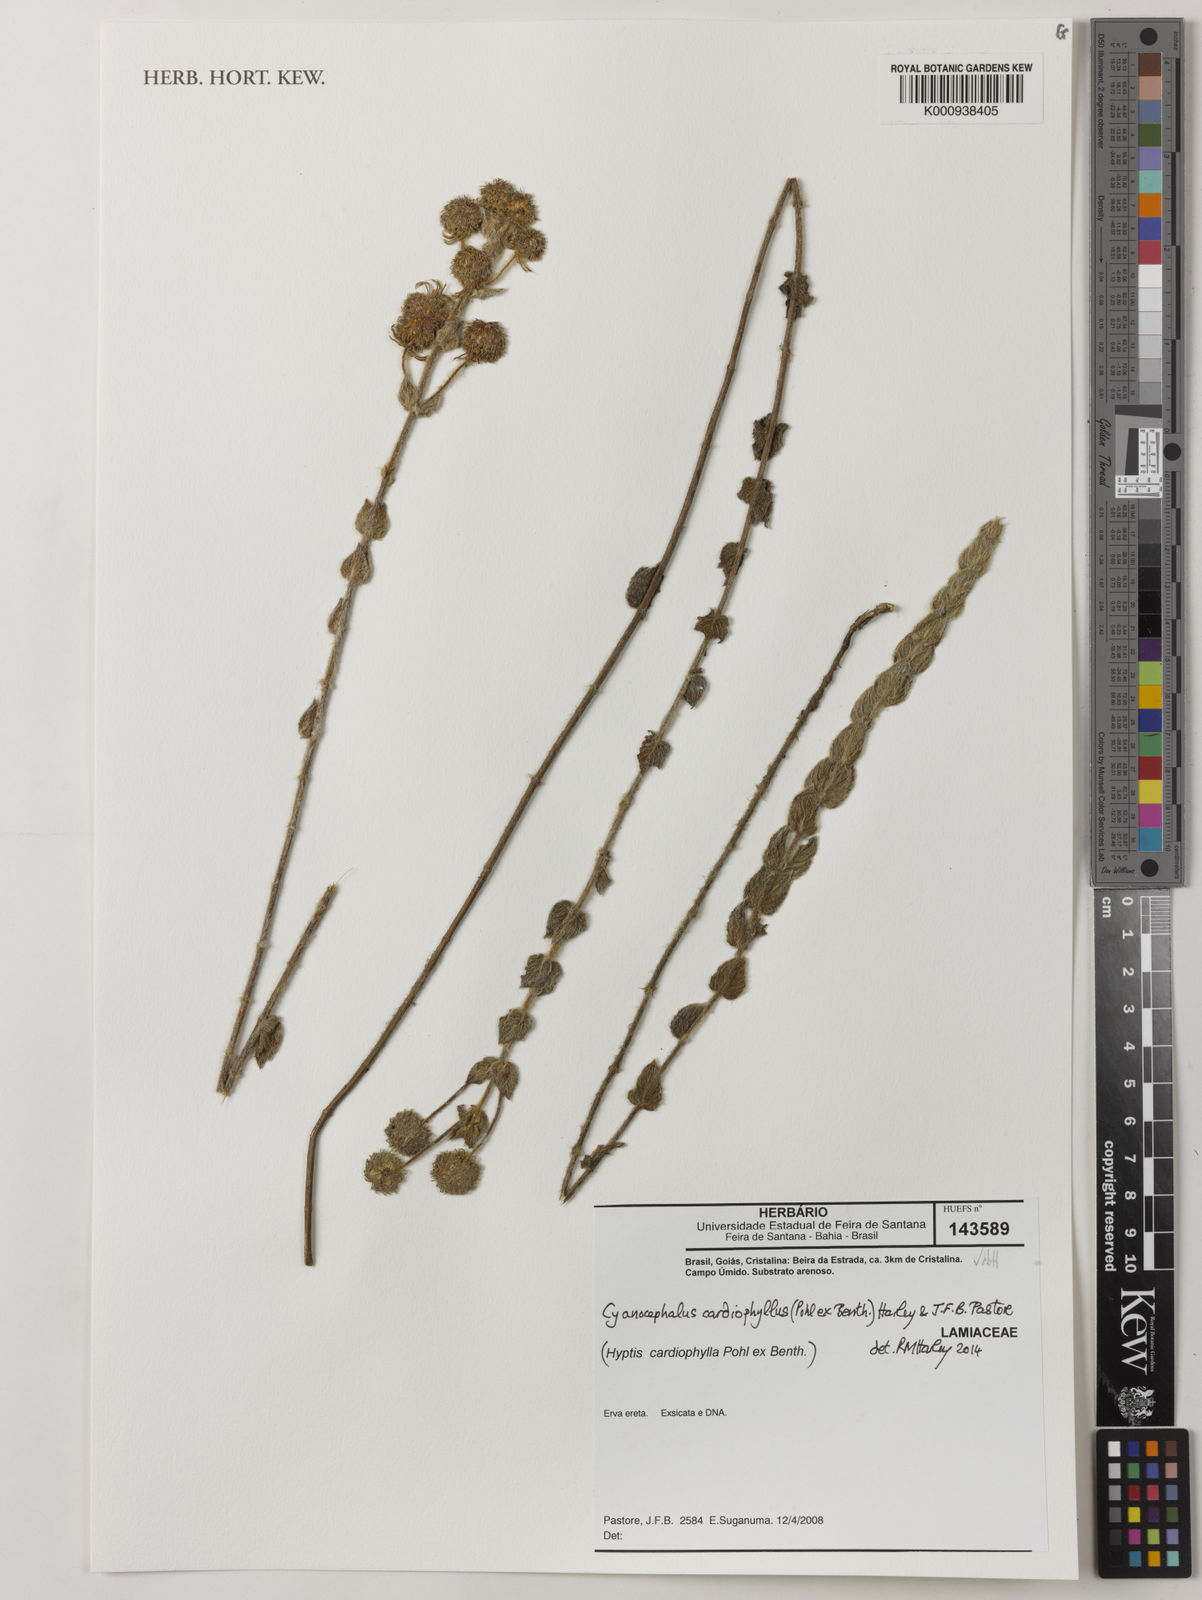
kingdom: Plantae
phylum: Tracheophyta
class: Magnoliopsida
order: Lamiales
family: Lamiaceae
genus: Cyanocephalus
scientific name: Cyanocephalus cardiophyllus
